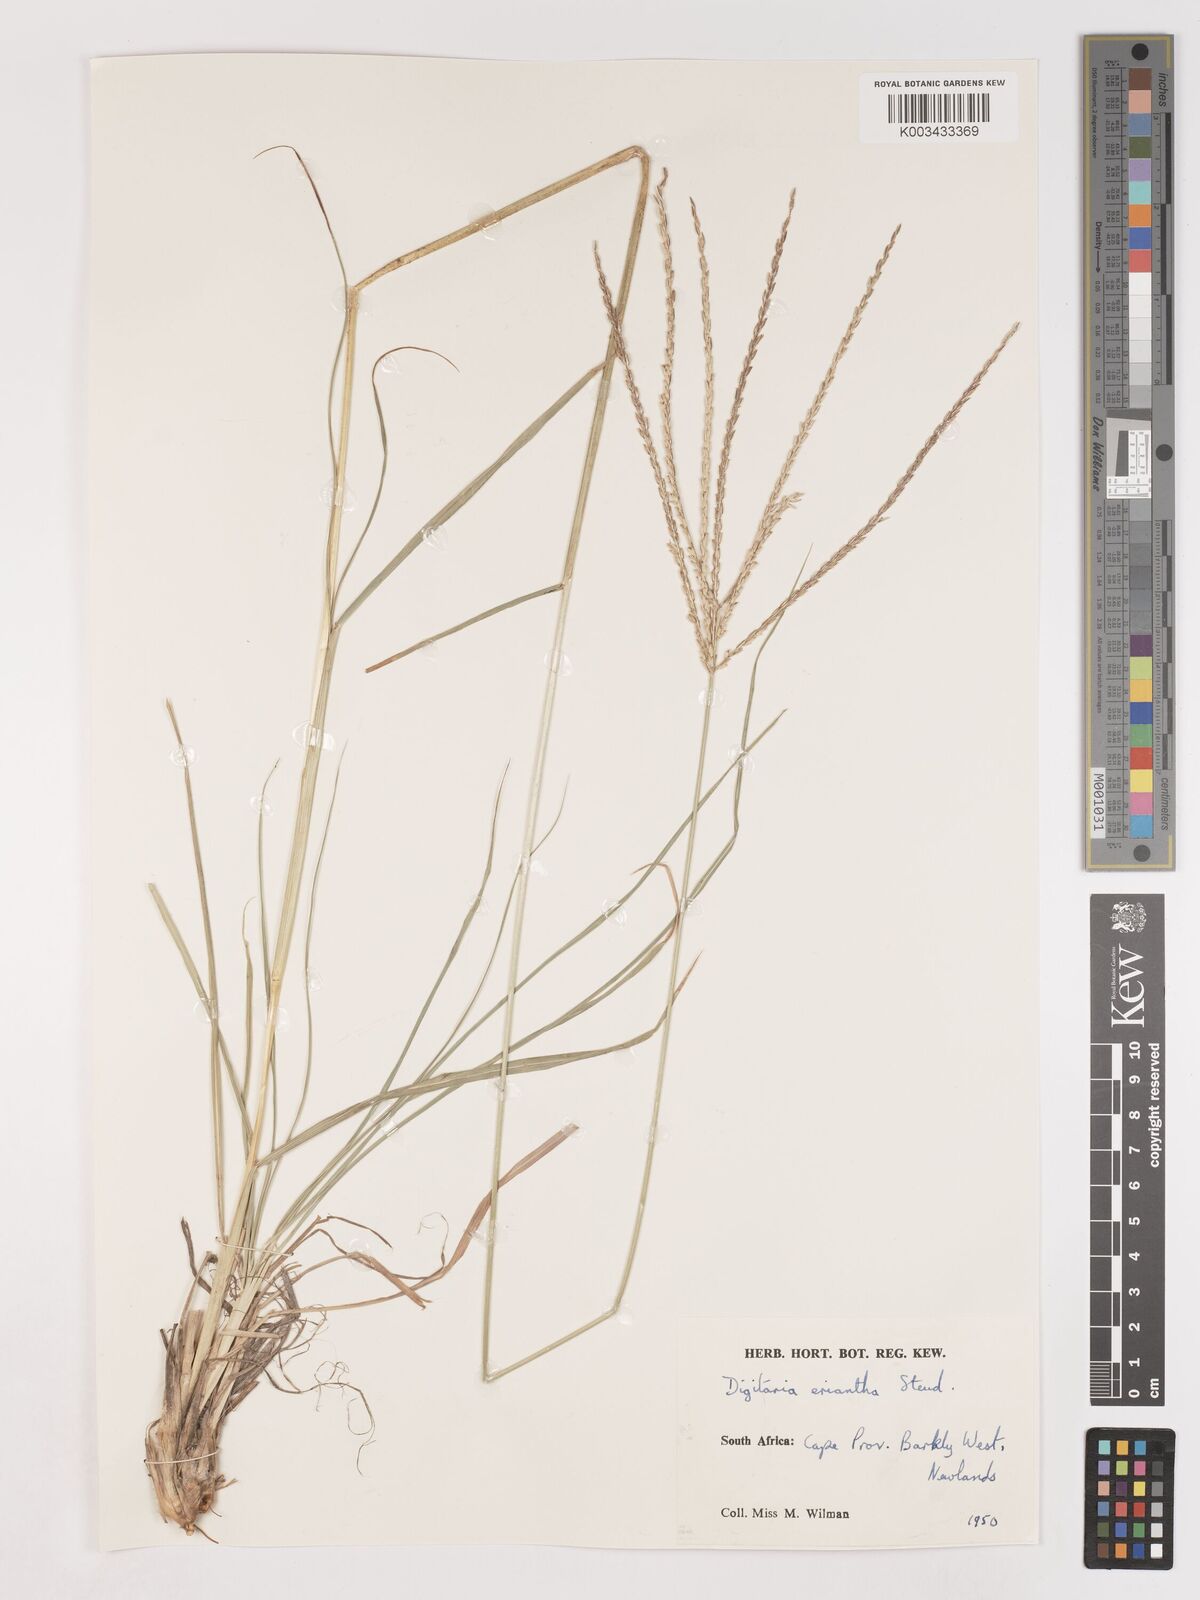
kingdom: Plantae
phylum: Tracheophyta
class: Liliopsida
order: Poales
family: Poaceae
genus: Digitaria
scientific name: Digitaria eriantha
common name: Digitgrass
